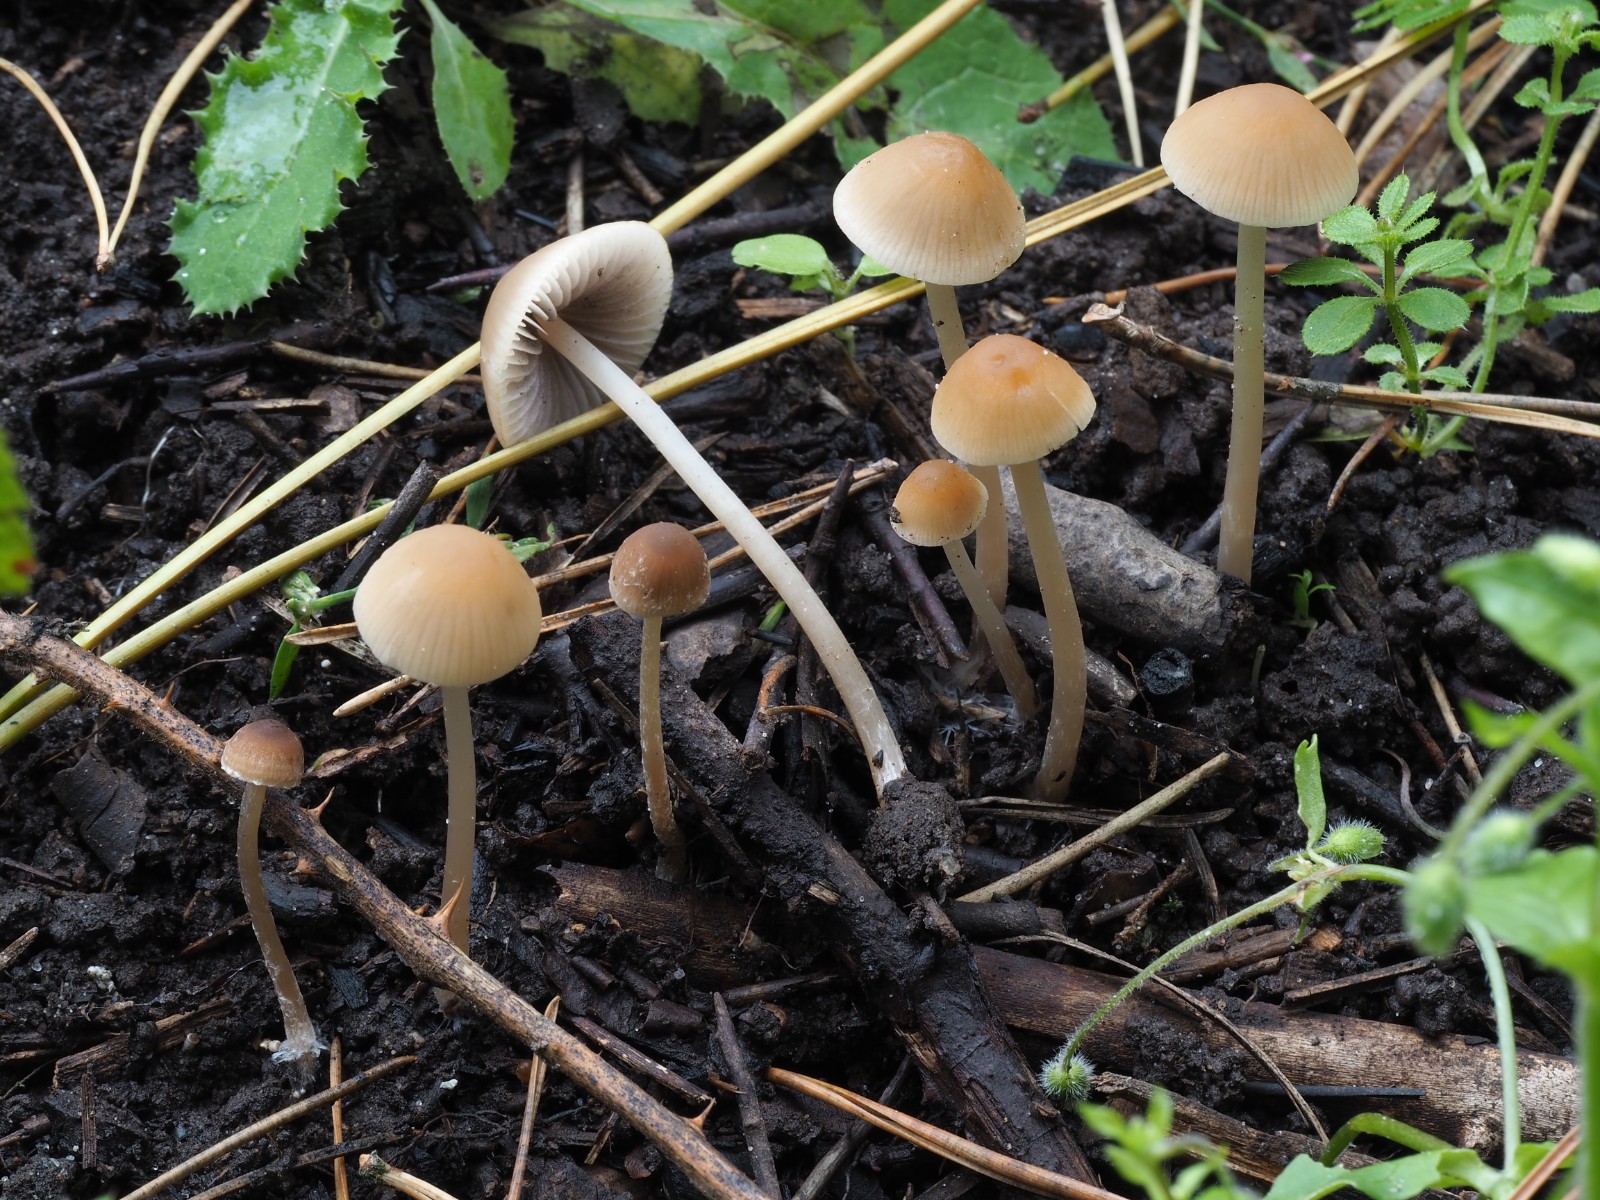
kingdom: Fungi
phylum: Basidiomycota
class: Agaricomycetes
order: Agaricales
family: Psathyrellaceae
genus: Psathyrella
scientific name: Psathyrella corrugis
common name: rødægget mørkhat
